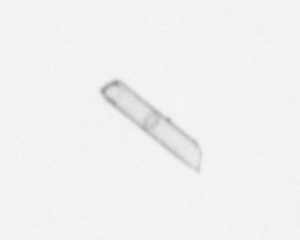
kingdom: Chromista
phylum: Ochrophyta
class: Bacillariophyceae
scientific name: Bacillariophyceae
